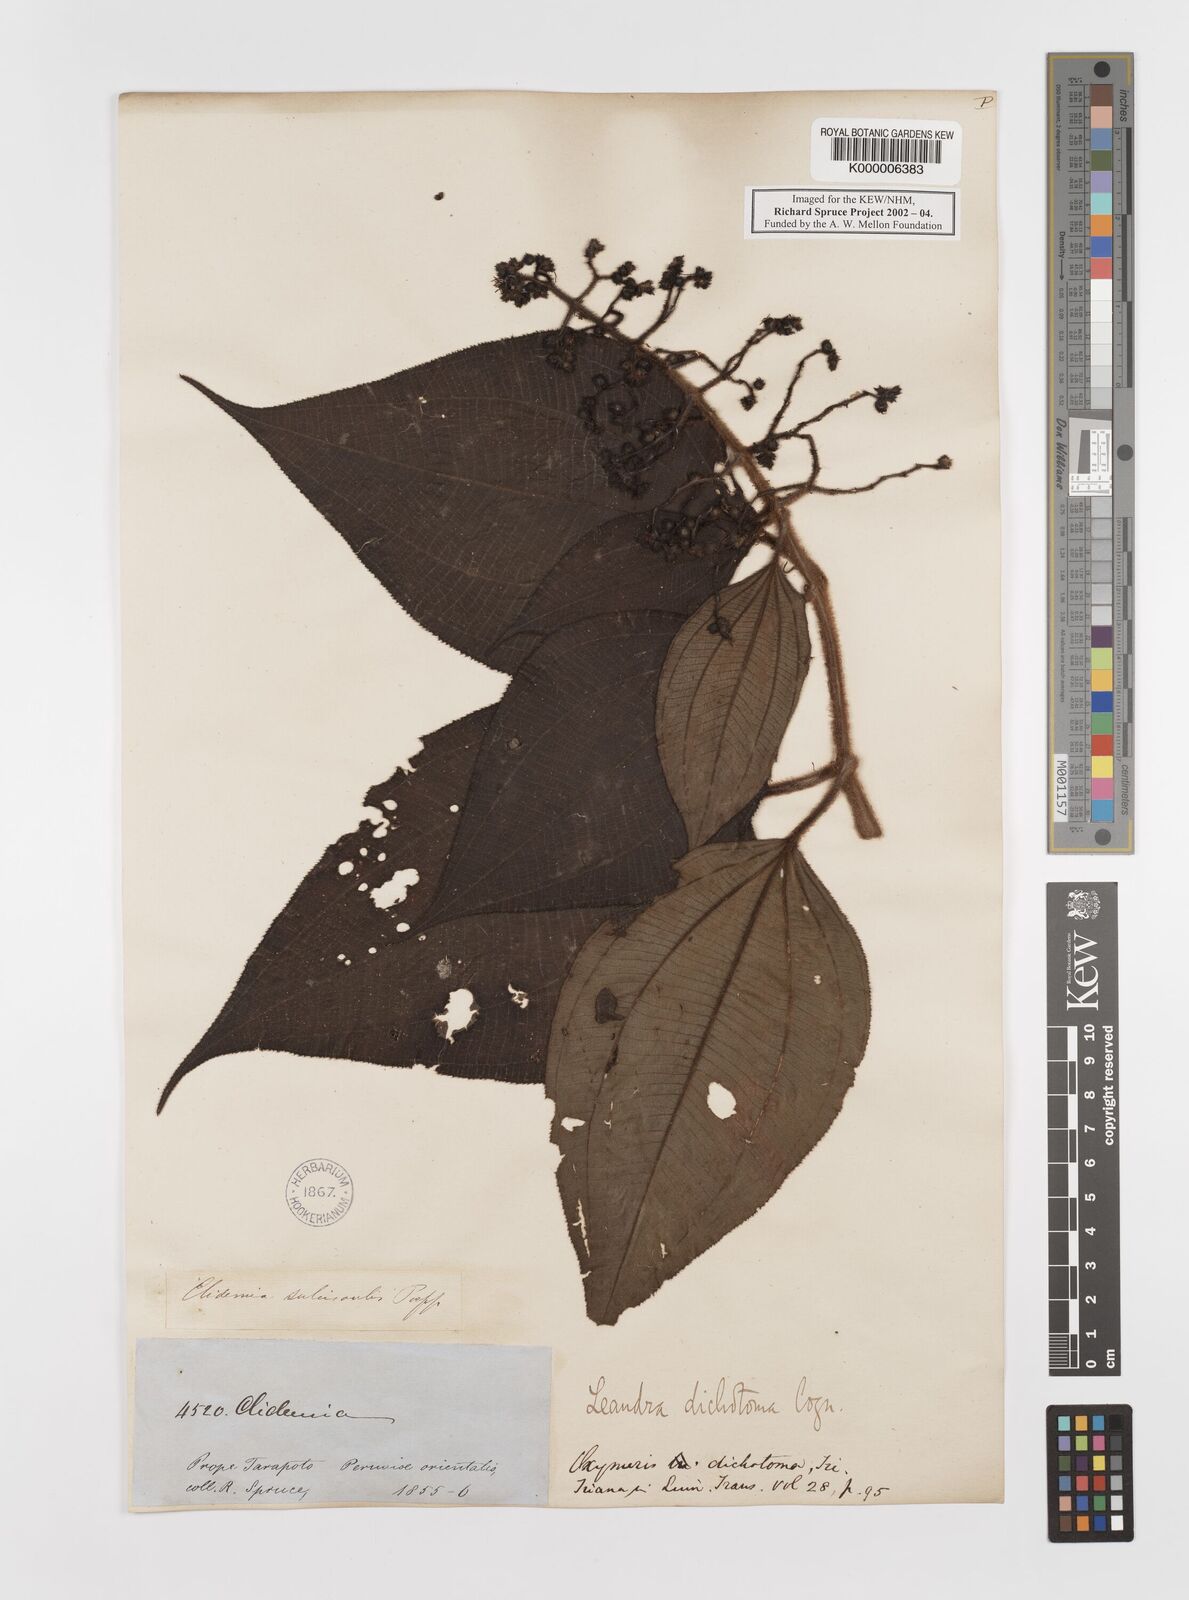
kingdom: Plantae
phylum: Tracheophyta
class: Magnoliopsida
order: Myrtales
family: Melastomataceae
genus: Miconia
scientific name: Miconia sulcicaulis
